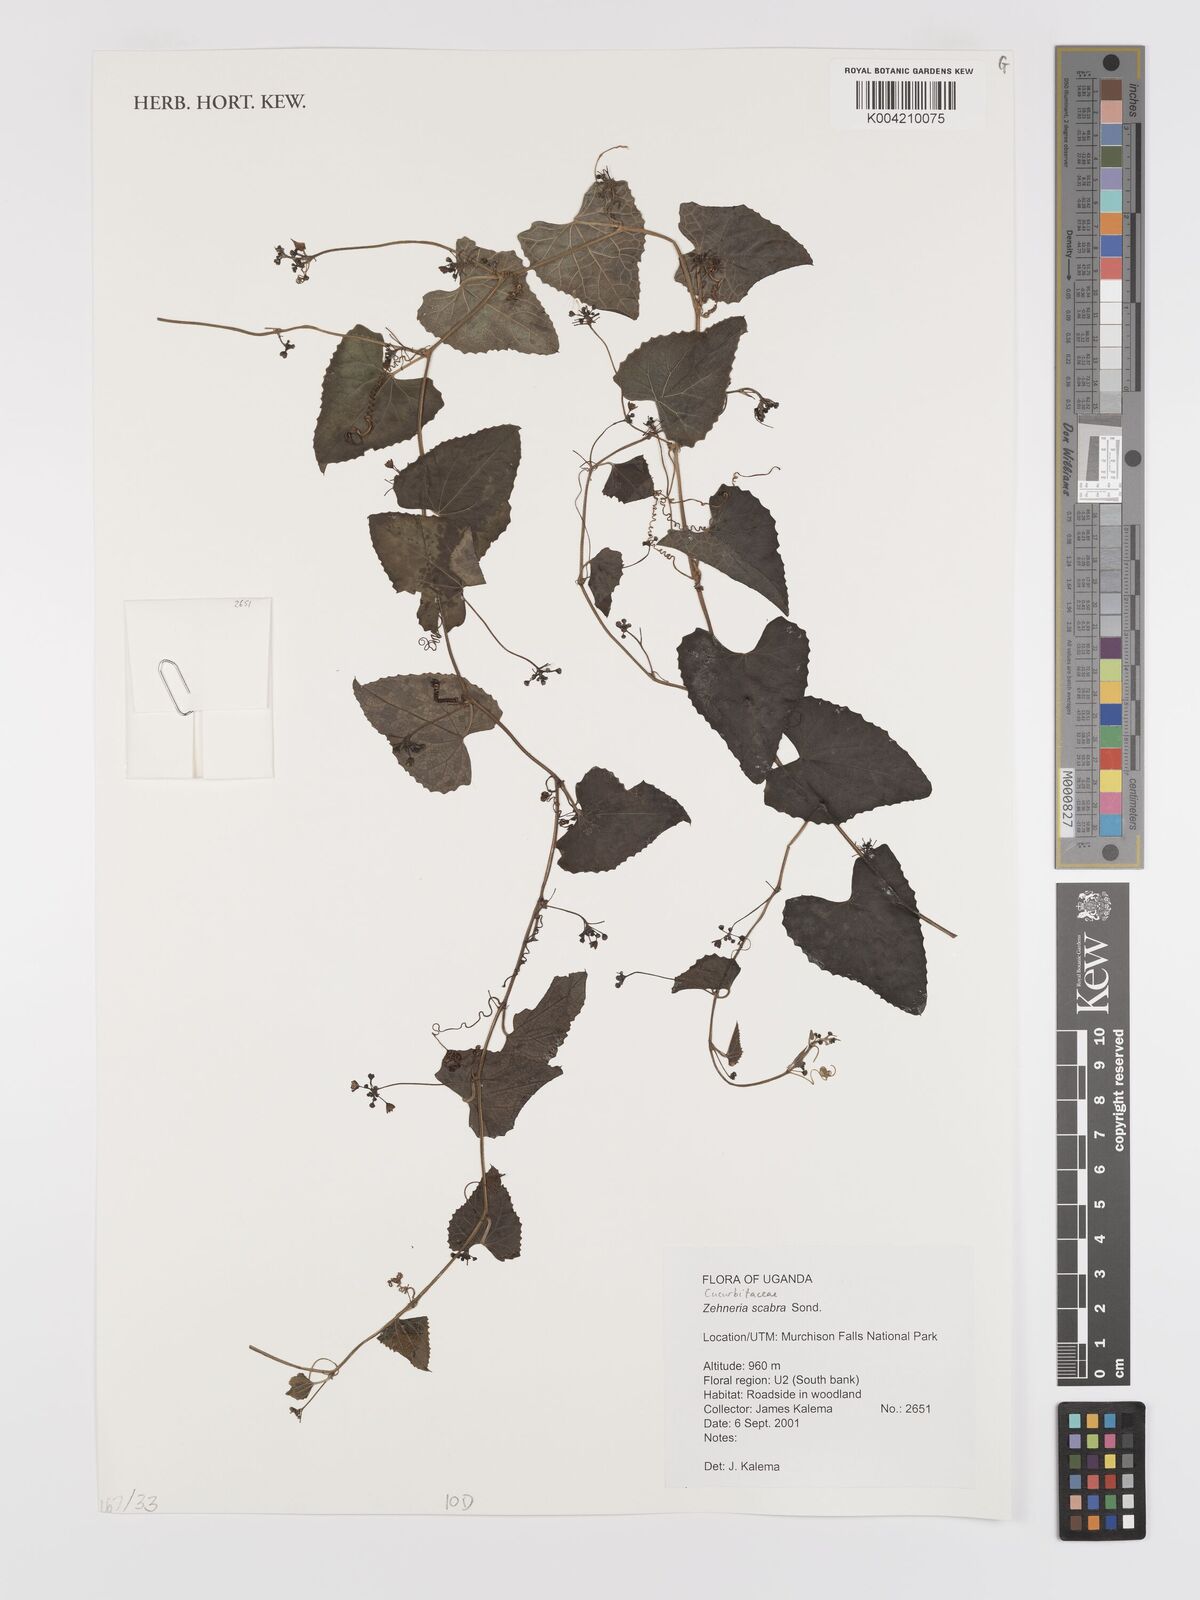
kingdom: Plantae
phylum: Tracheophyta
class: Magnoliopsida
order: Cucurbitales
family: Cucurbitaceae
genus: Zehneria
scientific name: Zehneria scabra
